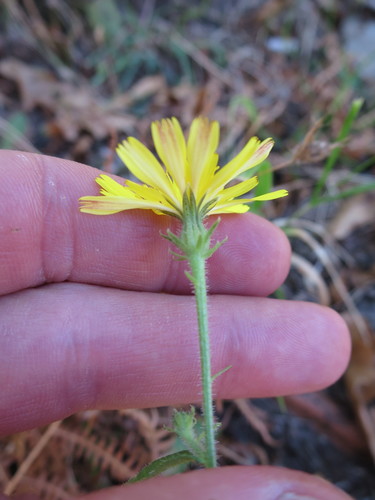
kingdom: Plantae
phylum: Tracheophyta
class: Magnoliopsida
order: Asterales
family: Asteraceae
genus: Picris
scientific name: Picris hieracioides
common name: Hawkweed oxtongue
